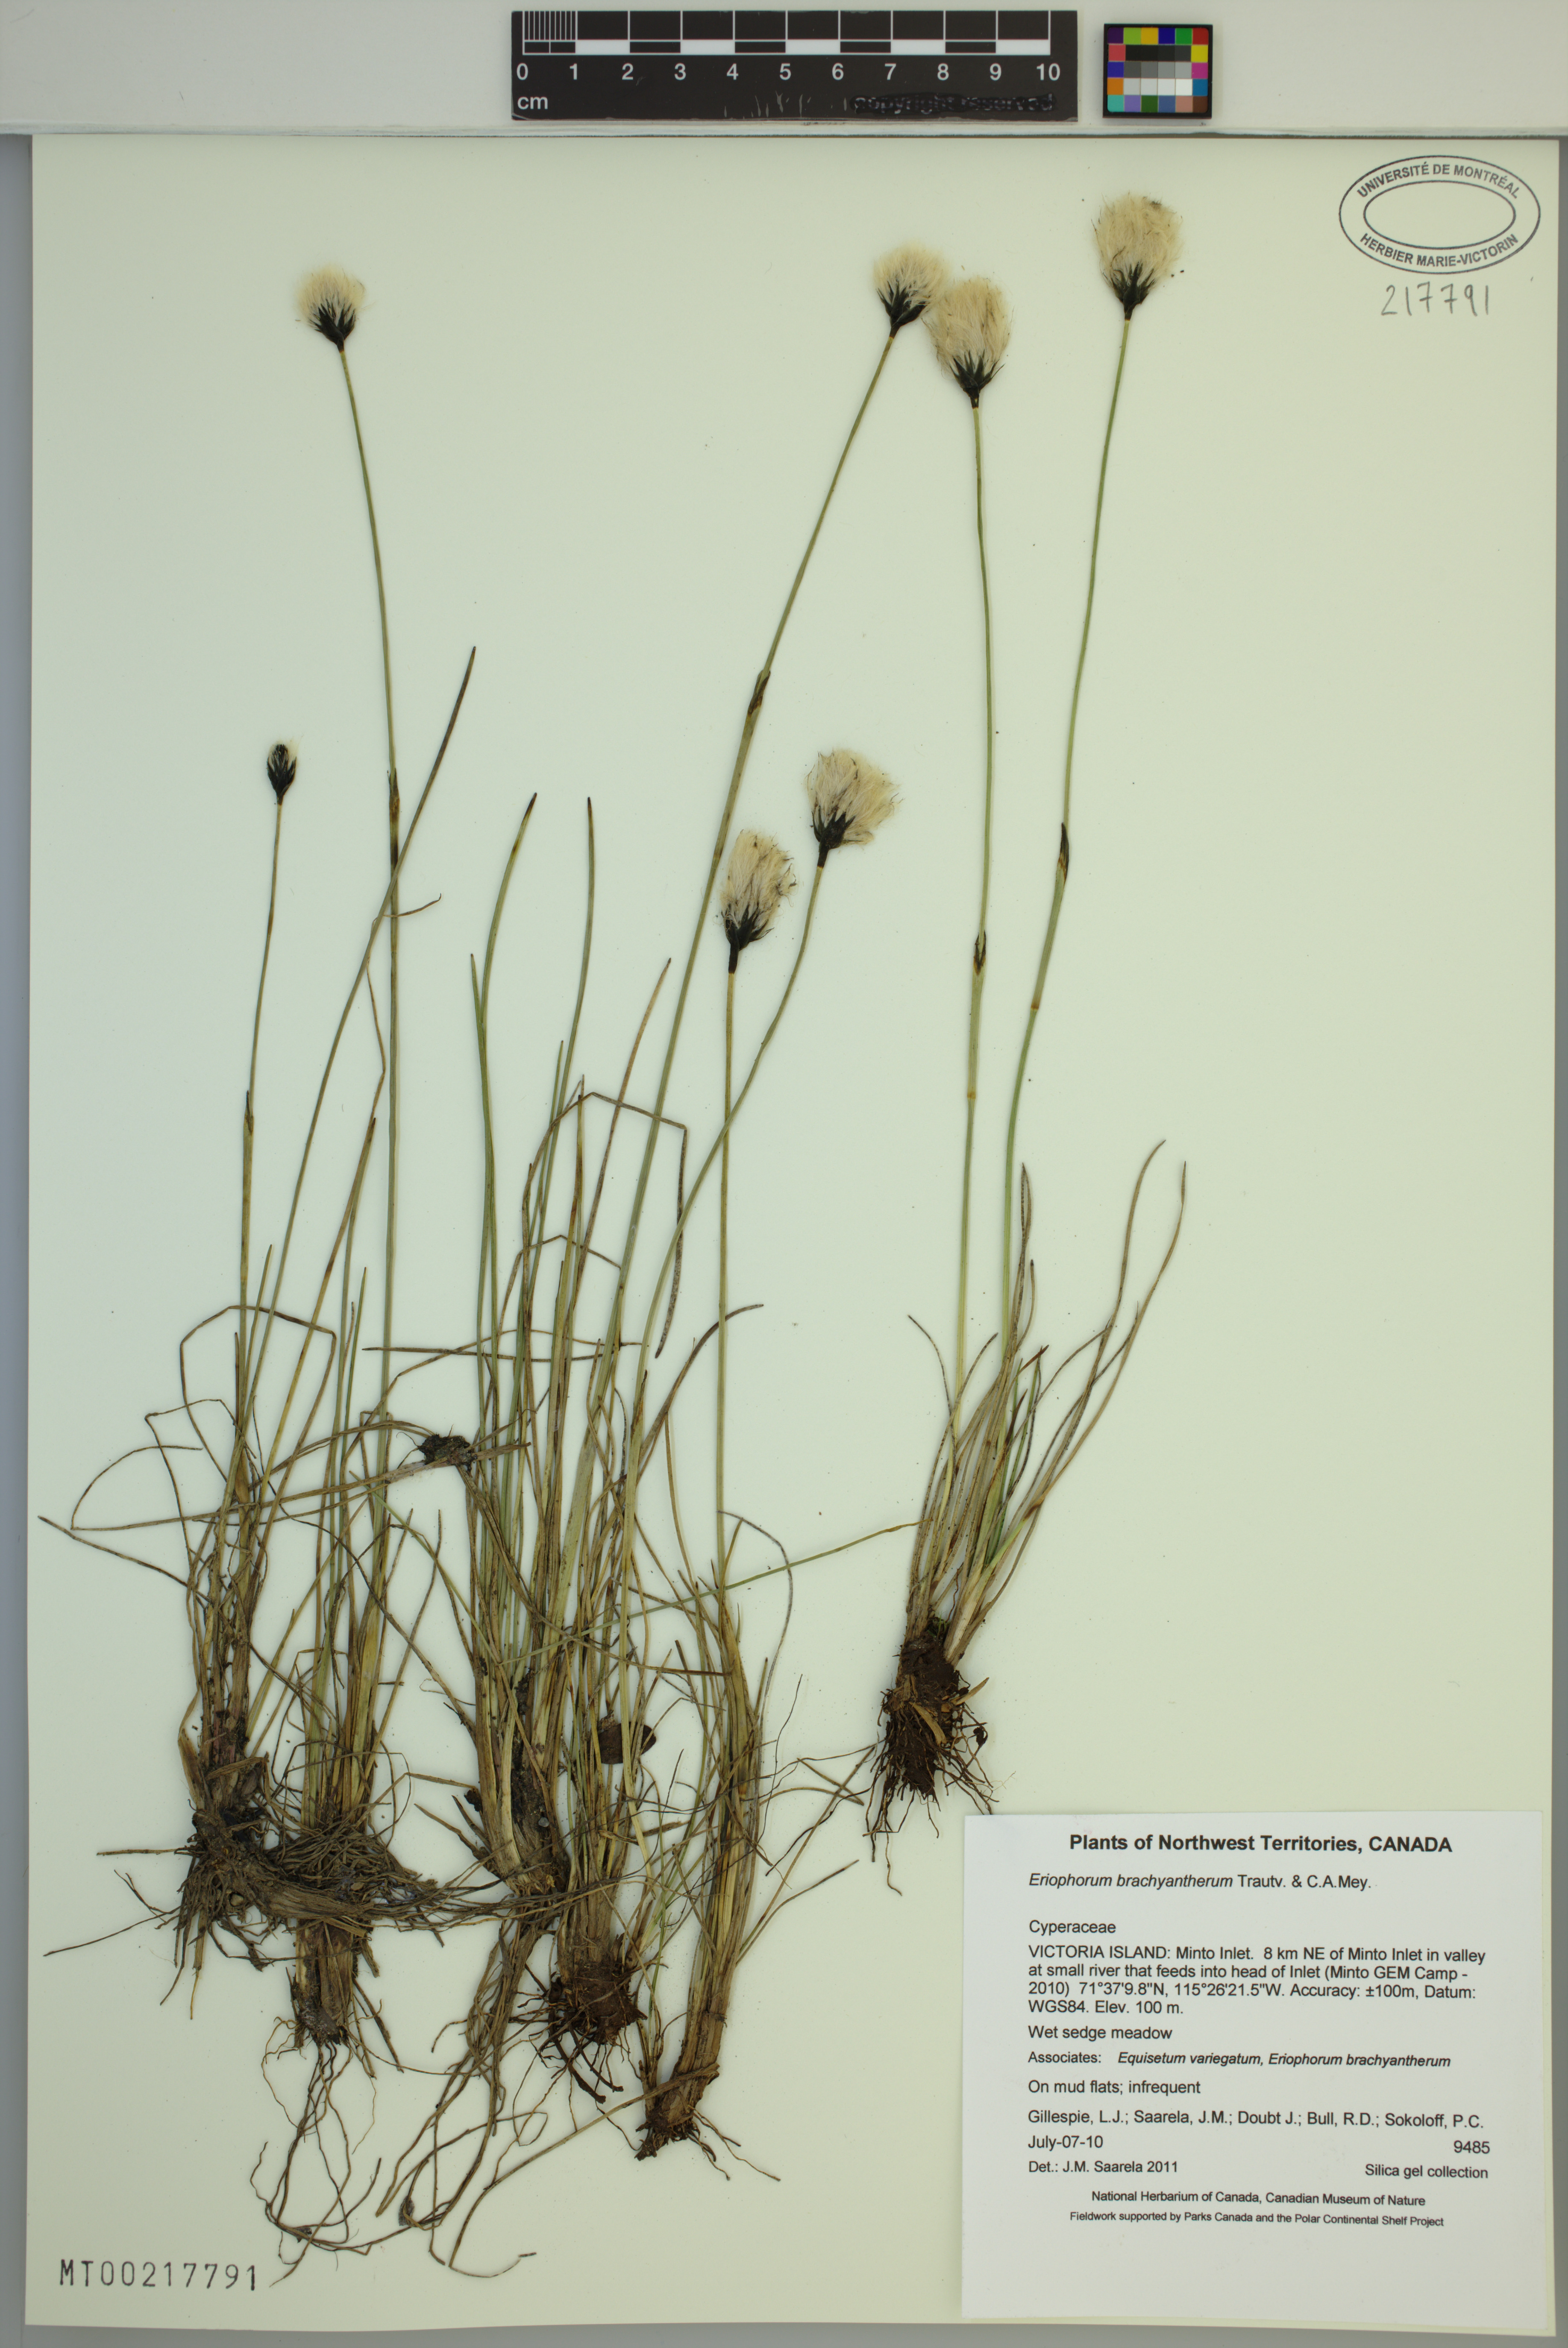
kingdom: Plantae
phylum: Tracheophyta
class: Liliopsida
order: Poales
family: Cyperaceae
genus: Eriophorum
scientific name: Eriophorum brachyantherum
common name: Closed-sheathed cottongrass
